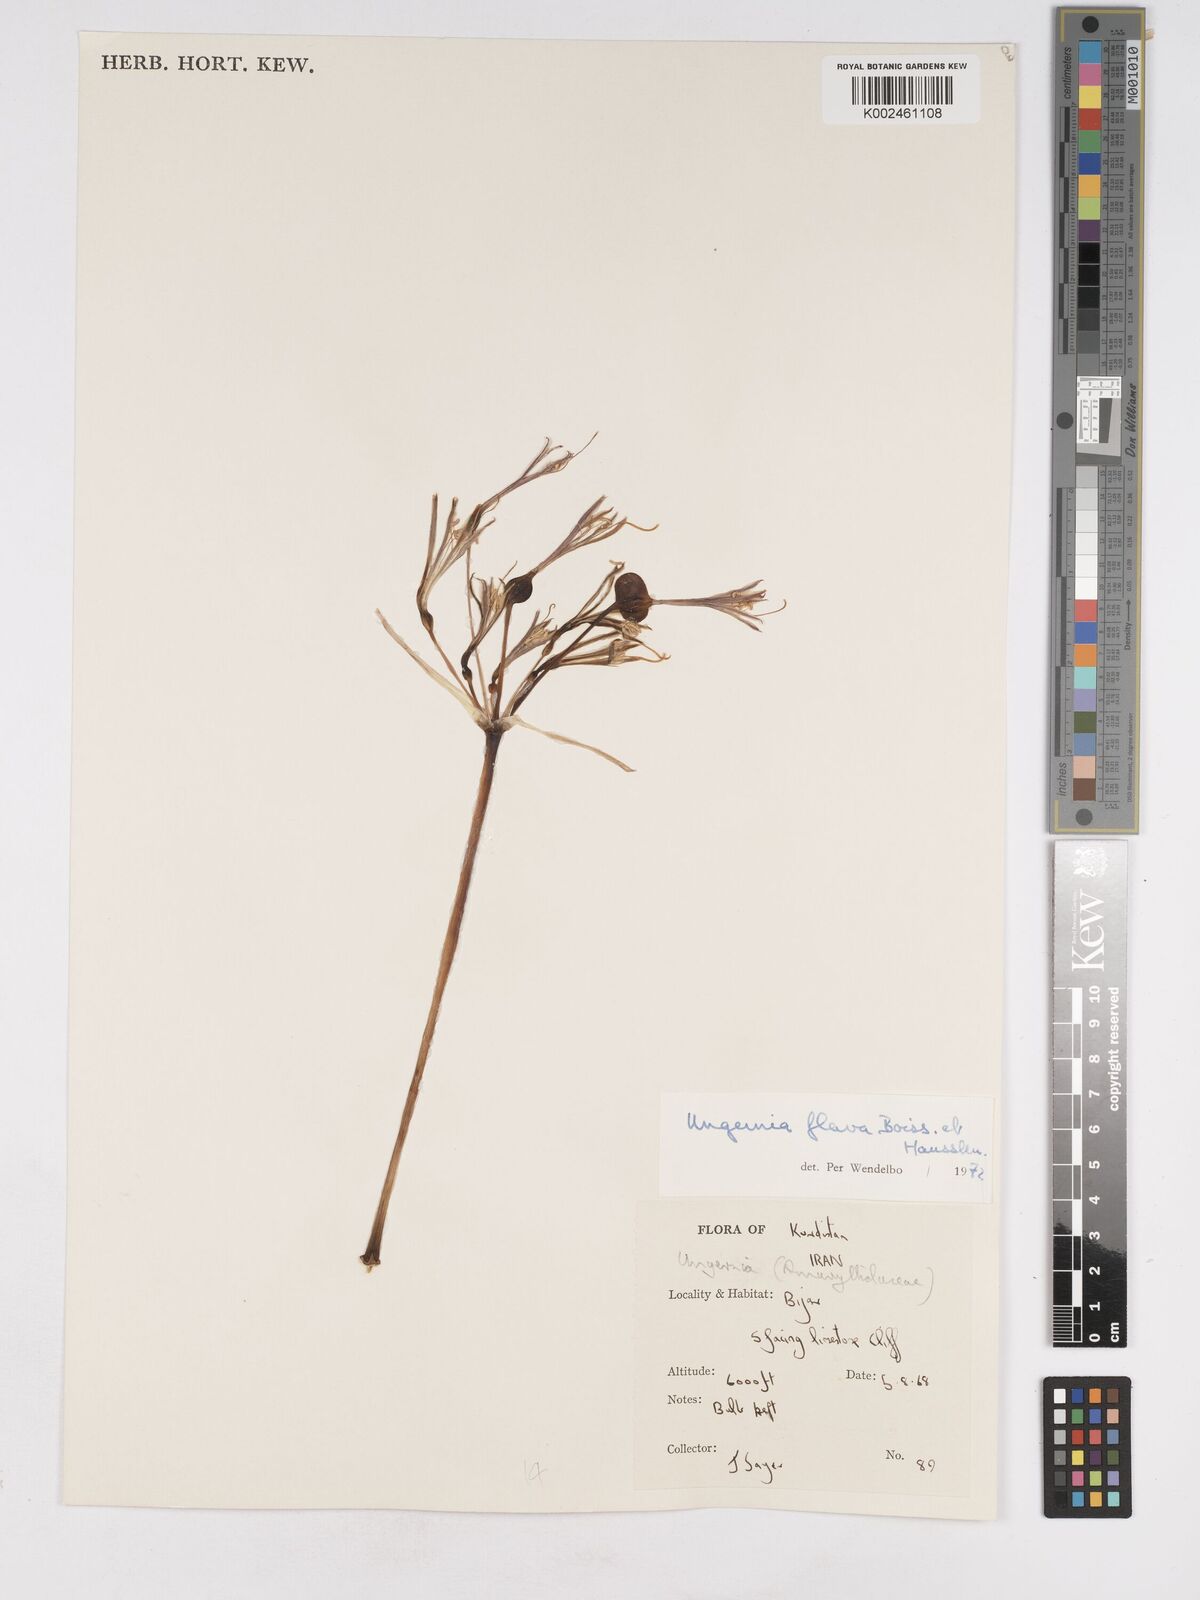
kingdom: Plantae
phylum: Tracheophyta
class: Liliopsida
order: Asparagales
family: Amaryllidaceae
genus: Ungernia
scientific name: Ungernia flava
